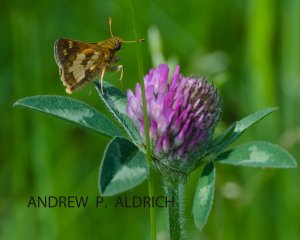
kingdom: Animalia
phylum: Arthropoda
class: Insecta
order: Lepidoptera
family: Hesperiidae
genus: Polites
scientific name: Polites coras
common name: Peck's Skipper
